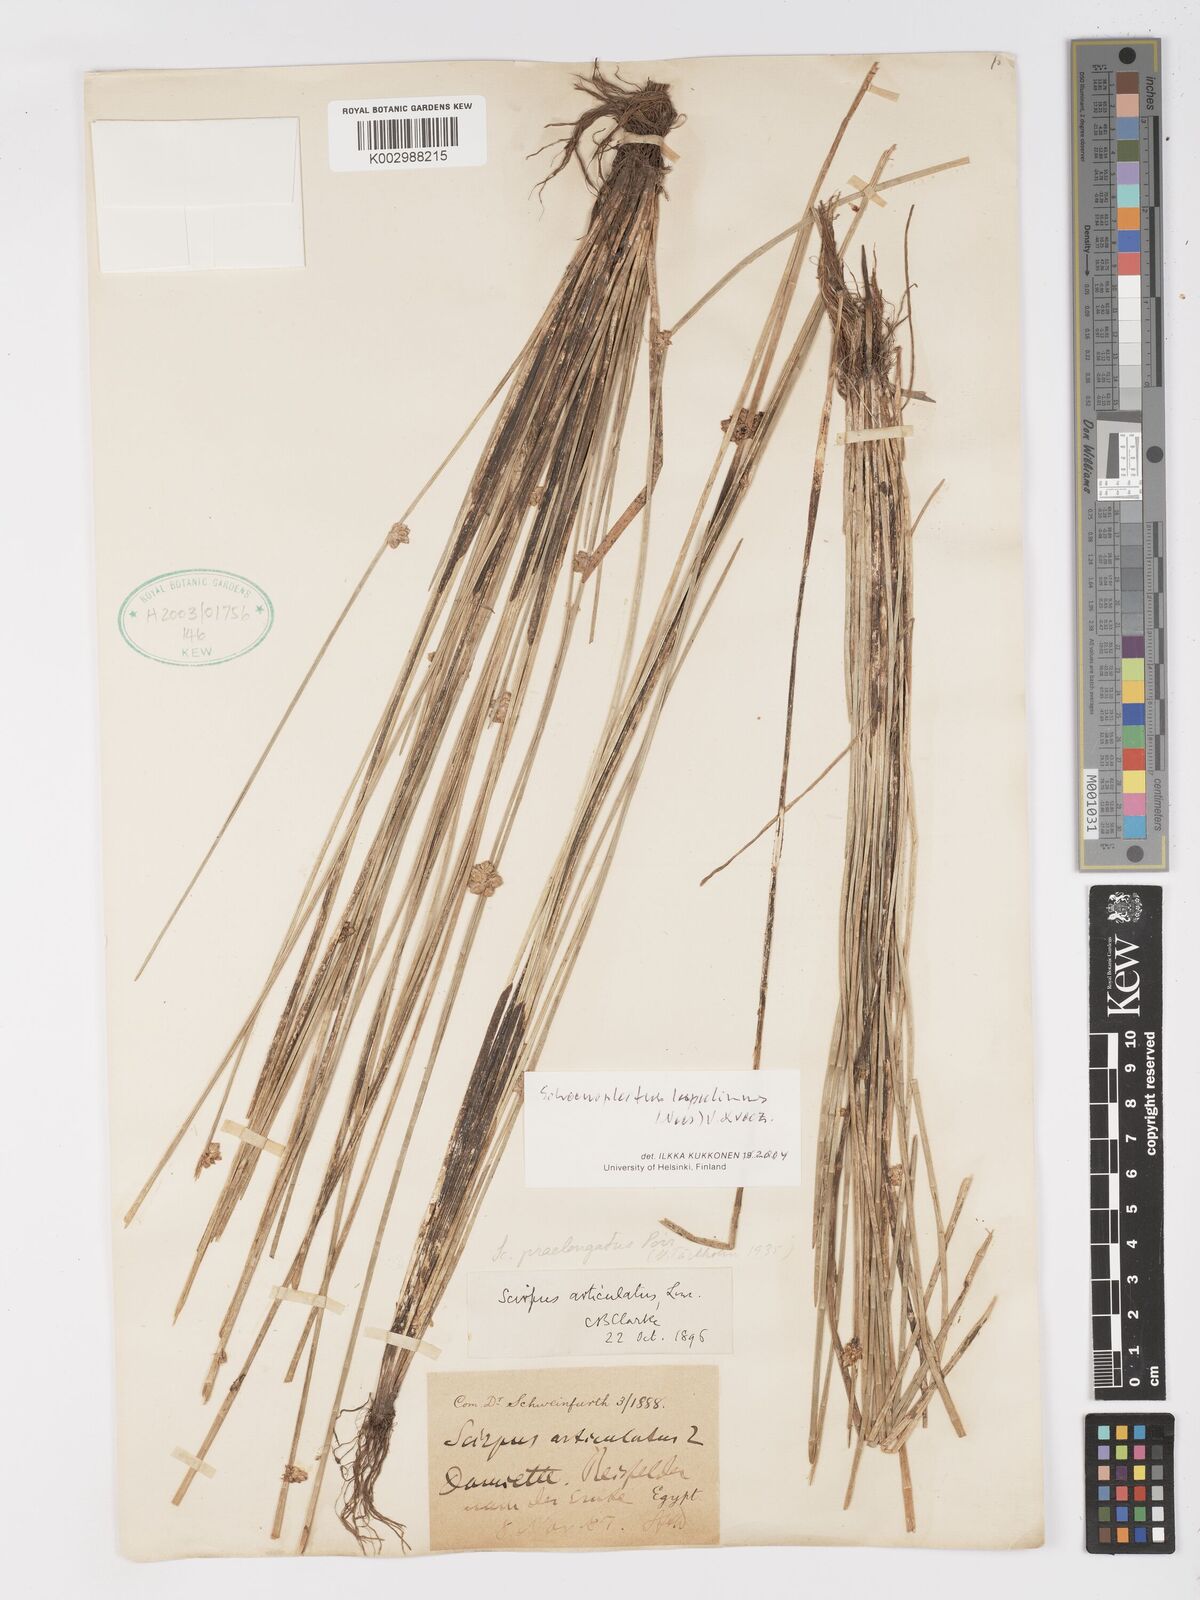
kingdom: Plantae
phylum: Tracheophyta
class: Liliopsida
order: Poales
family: Cyperaceae
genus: Schoenoplectiella
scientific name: Schoenoplectiella roylei
